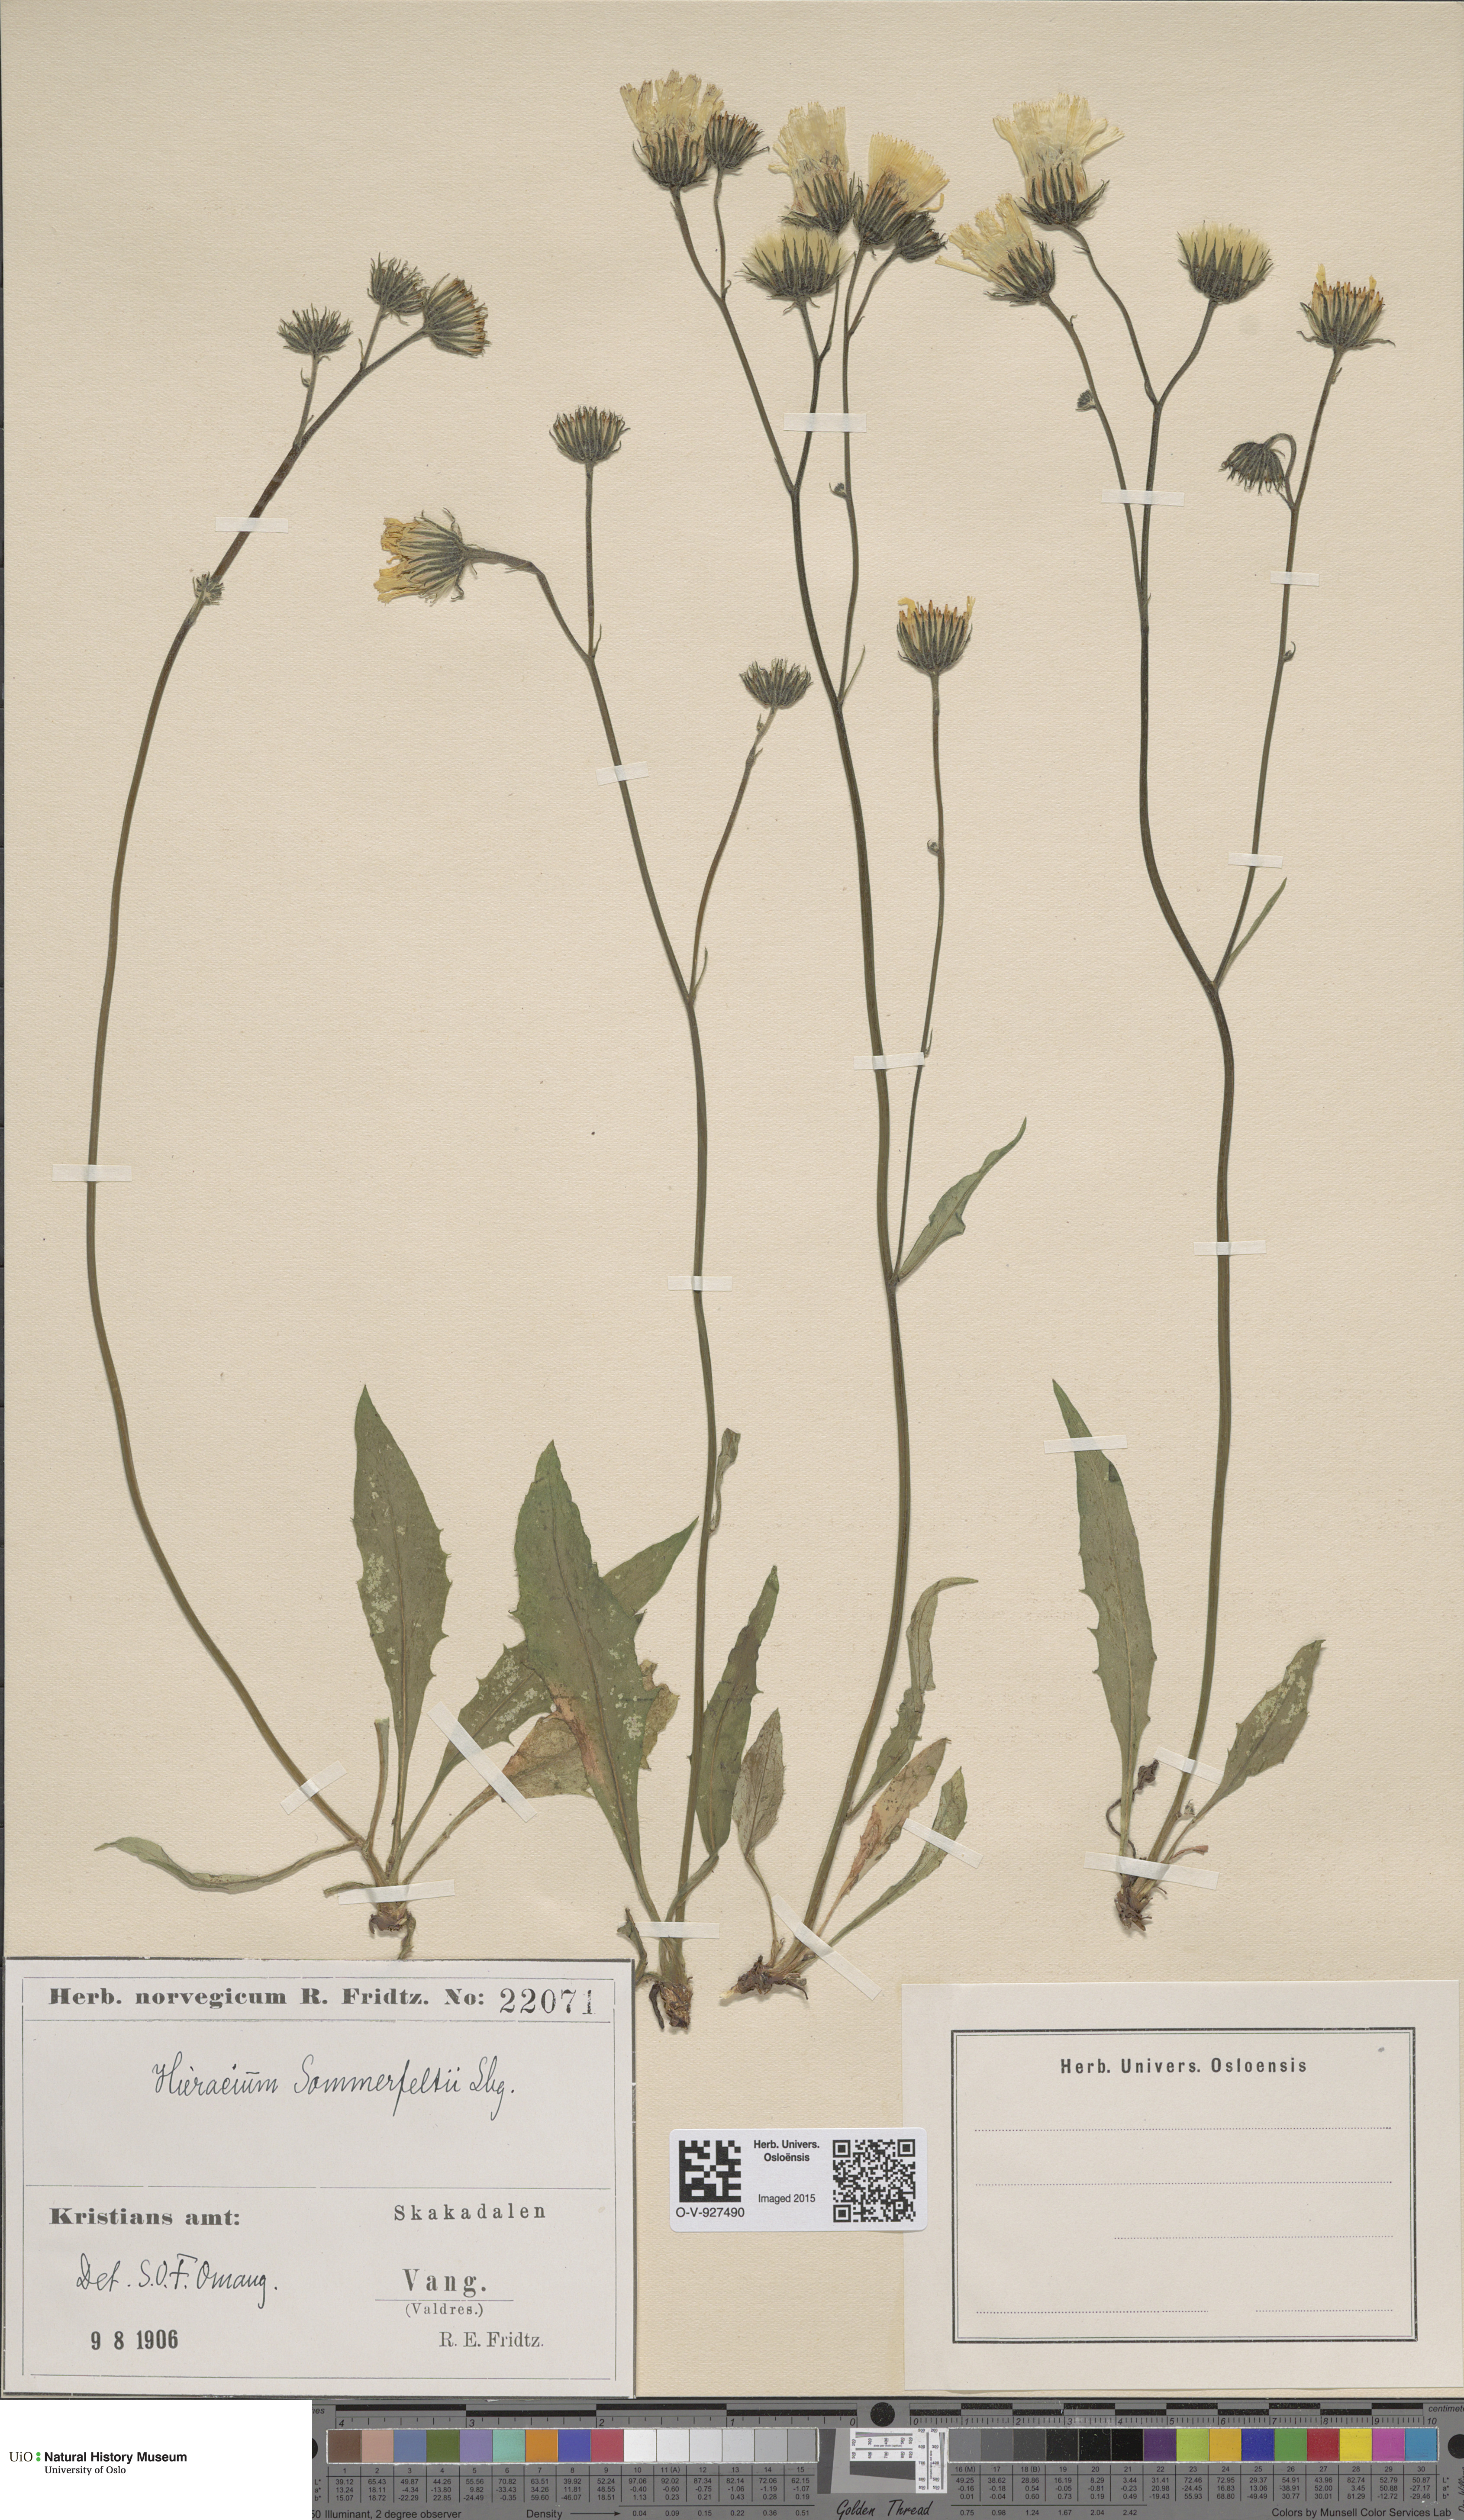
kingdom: Plantae
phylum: Tracheophyta
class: Magnoliopsida
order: Asterales
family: Asteraceae
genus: Hieracium
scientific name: Hieracium sommerfeltii
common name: Sommerfelt's hawkweed
